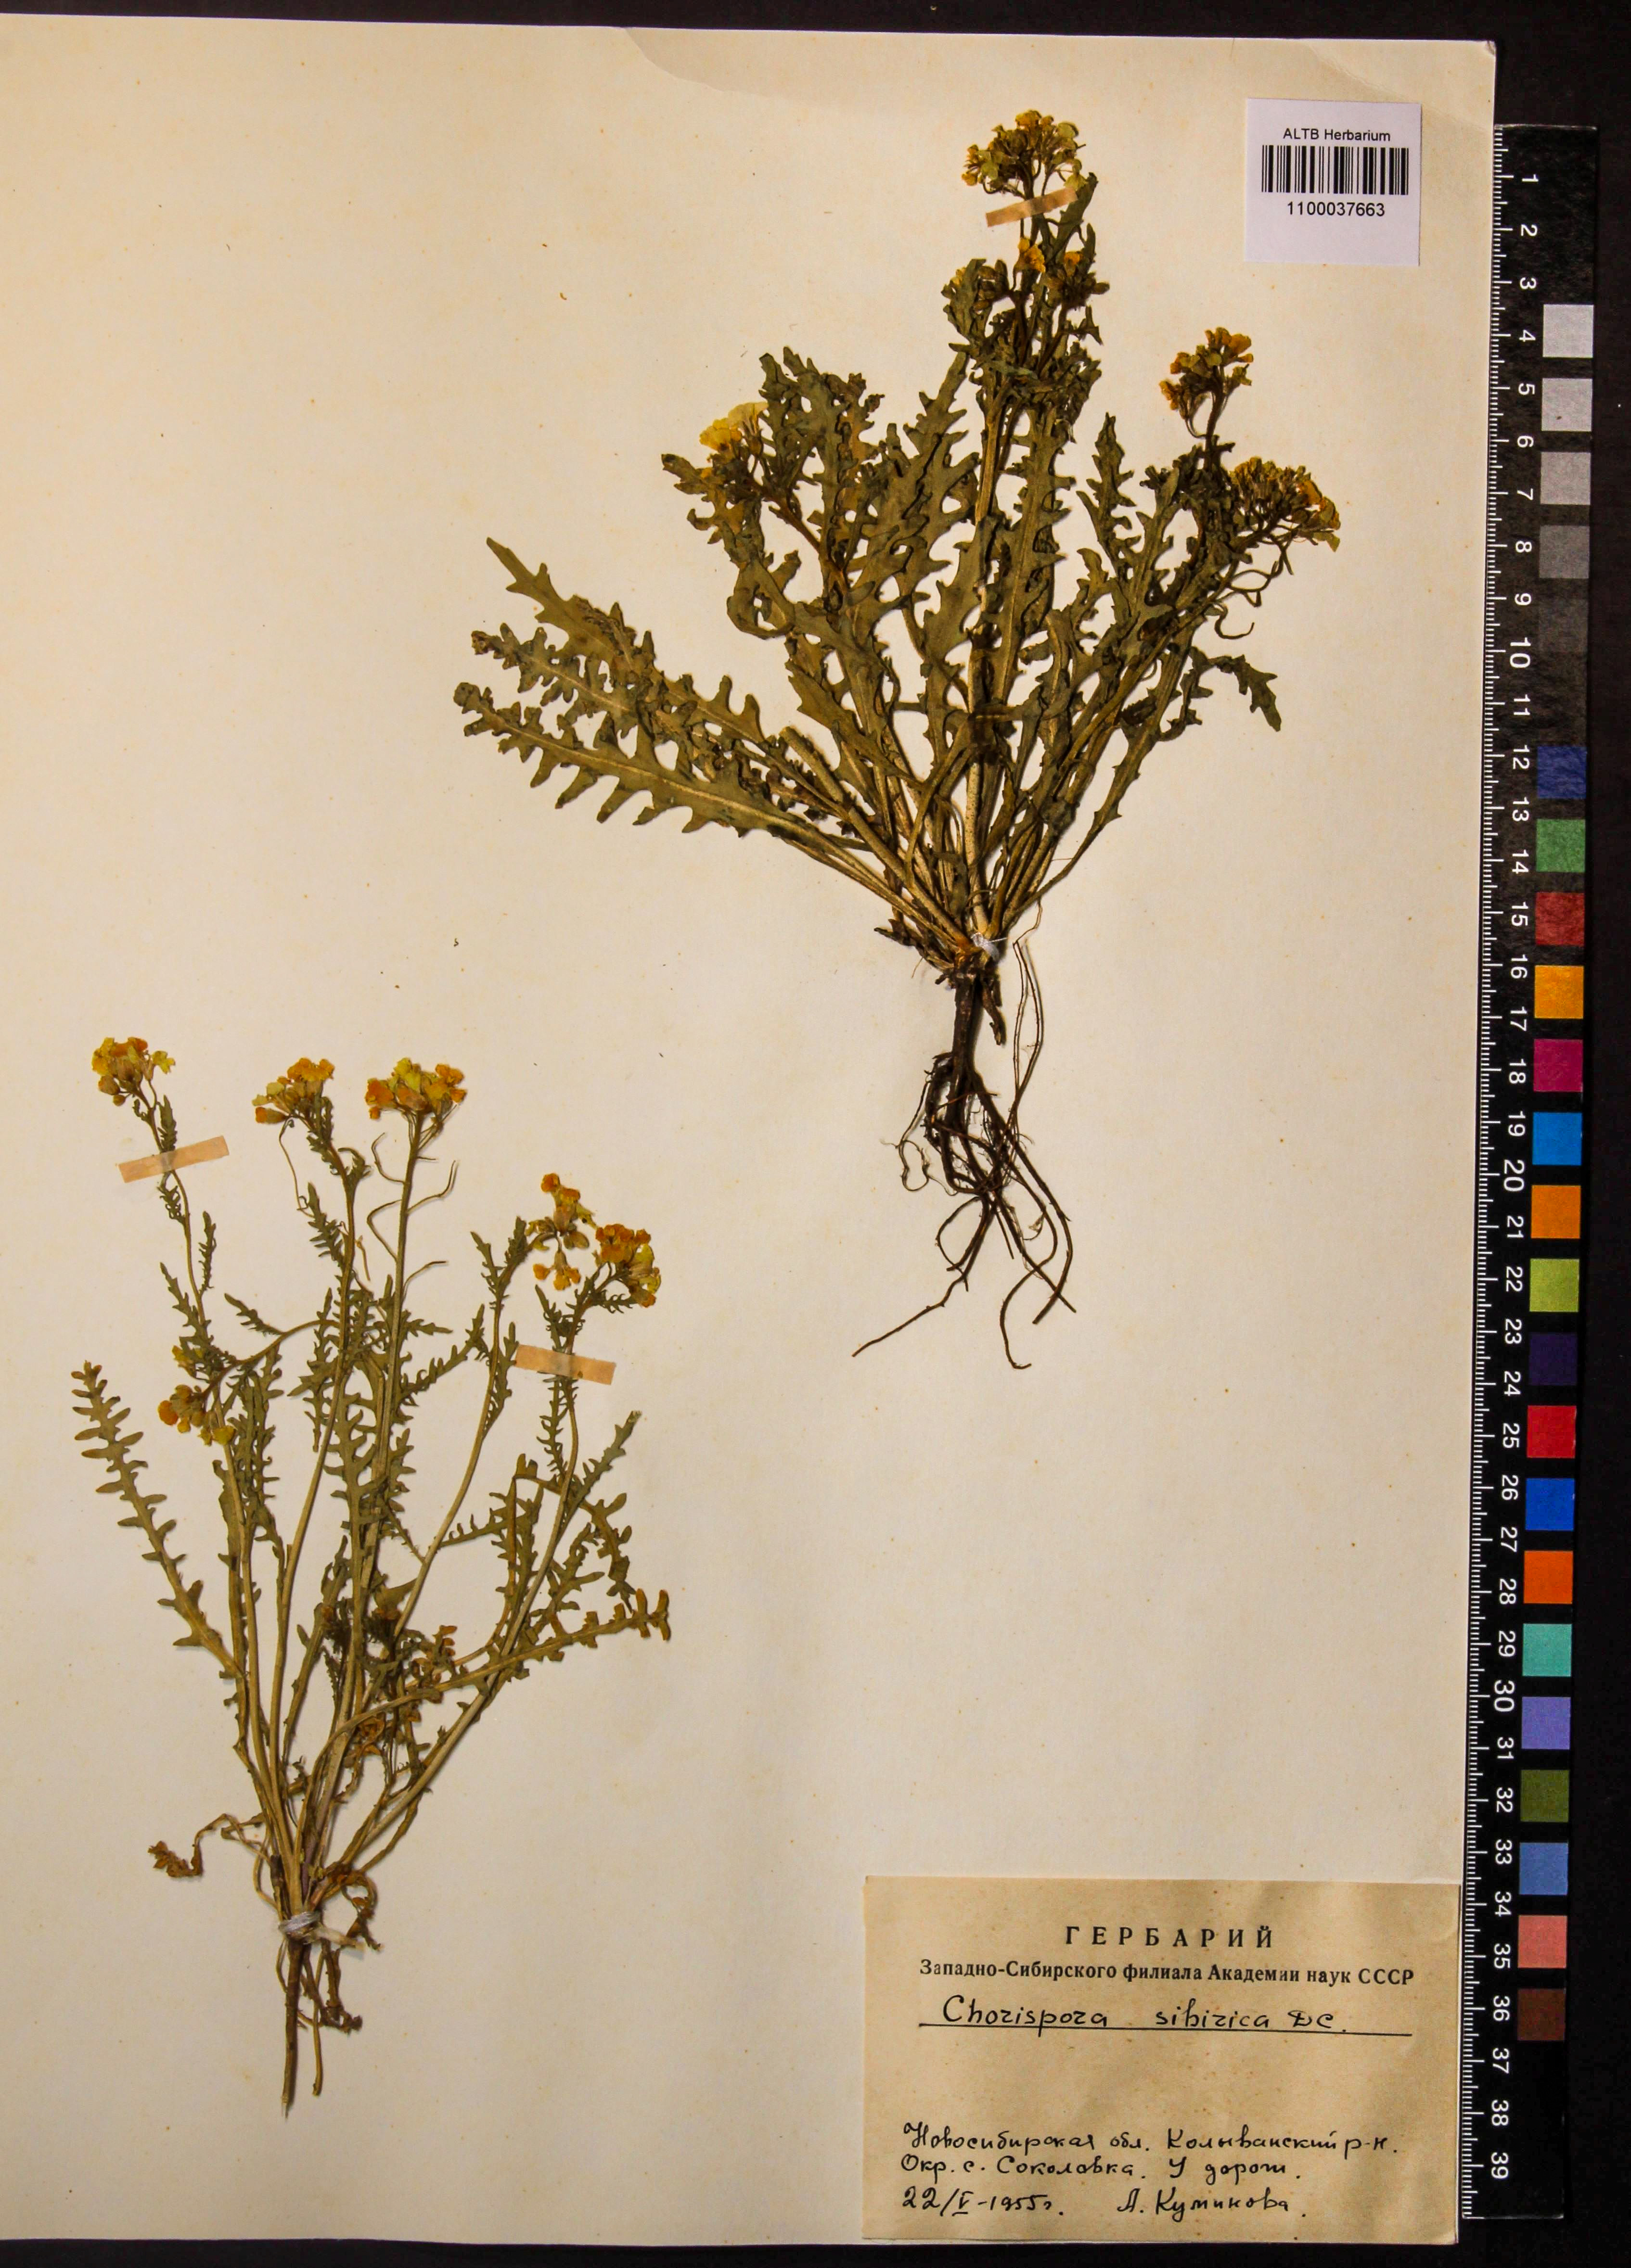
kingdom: Plantae
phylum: Tracheophyta
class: Magnoliopsida
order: Brassicales
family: Brassicaceae
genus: Chorispora
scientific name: Chorispora sibirica
